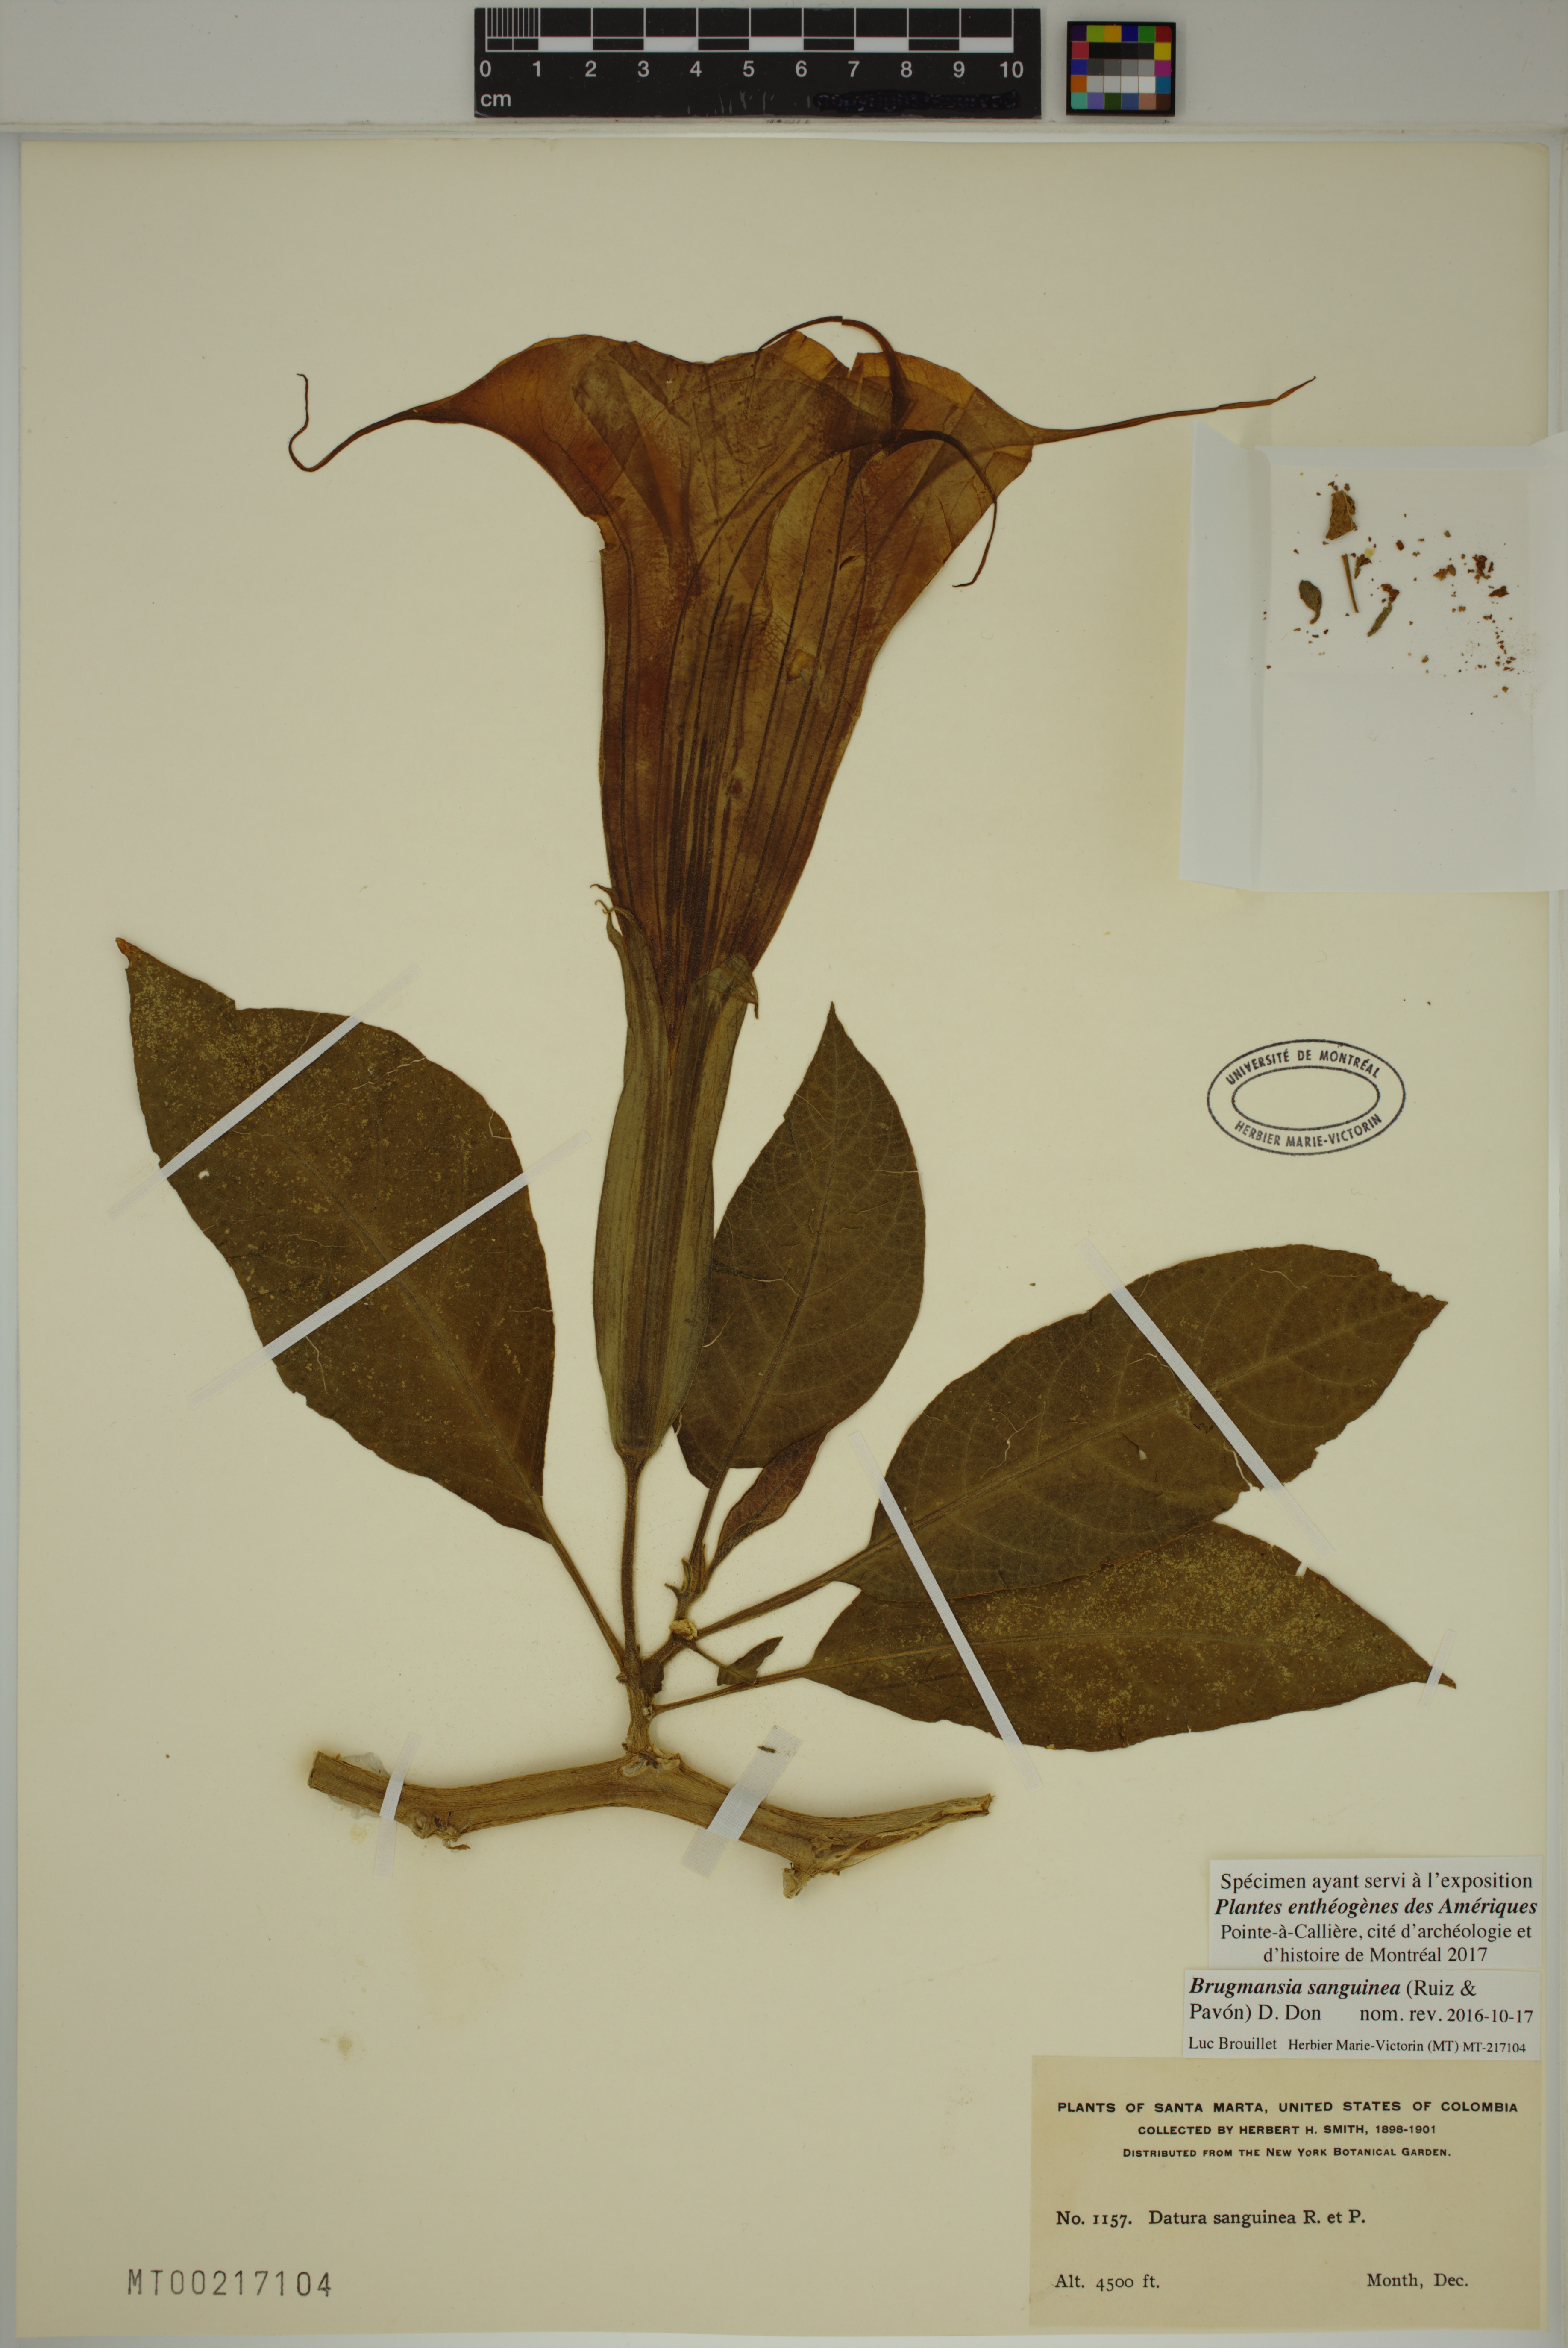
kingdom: Plantae
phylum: Tracheophyta
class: Magnoliopsida
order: Solanales
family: Solanaceae
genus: Brugmansia
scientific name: Brugmansia sanguinea
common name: Red floripontio
